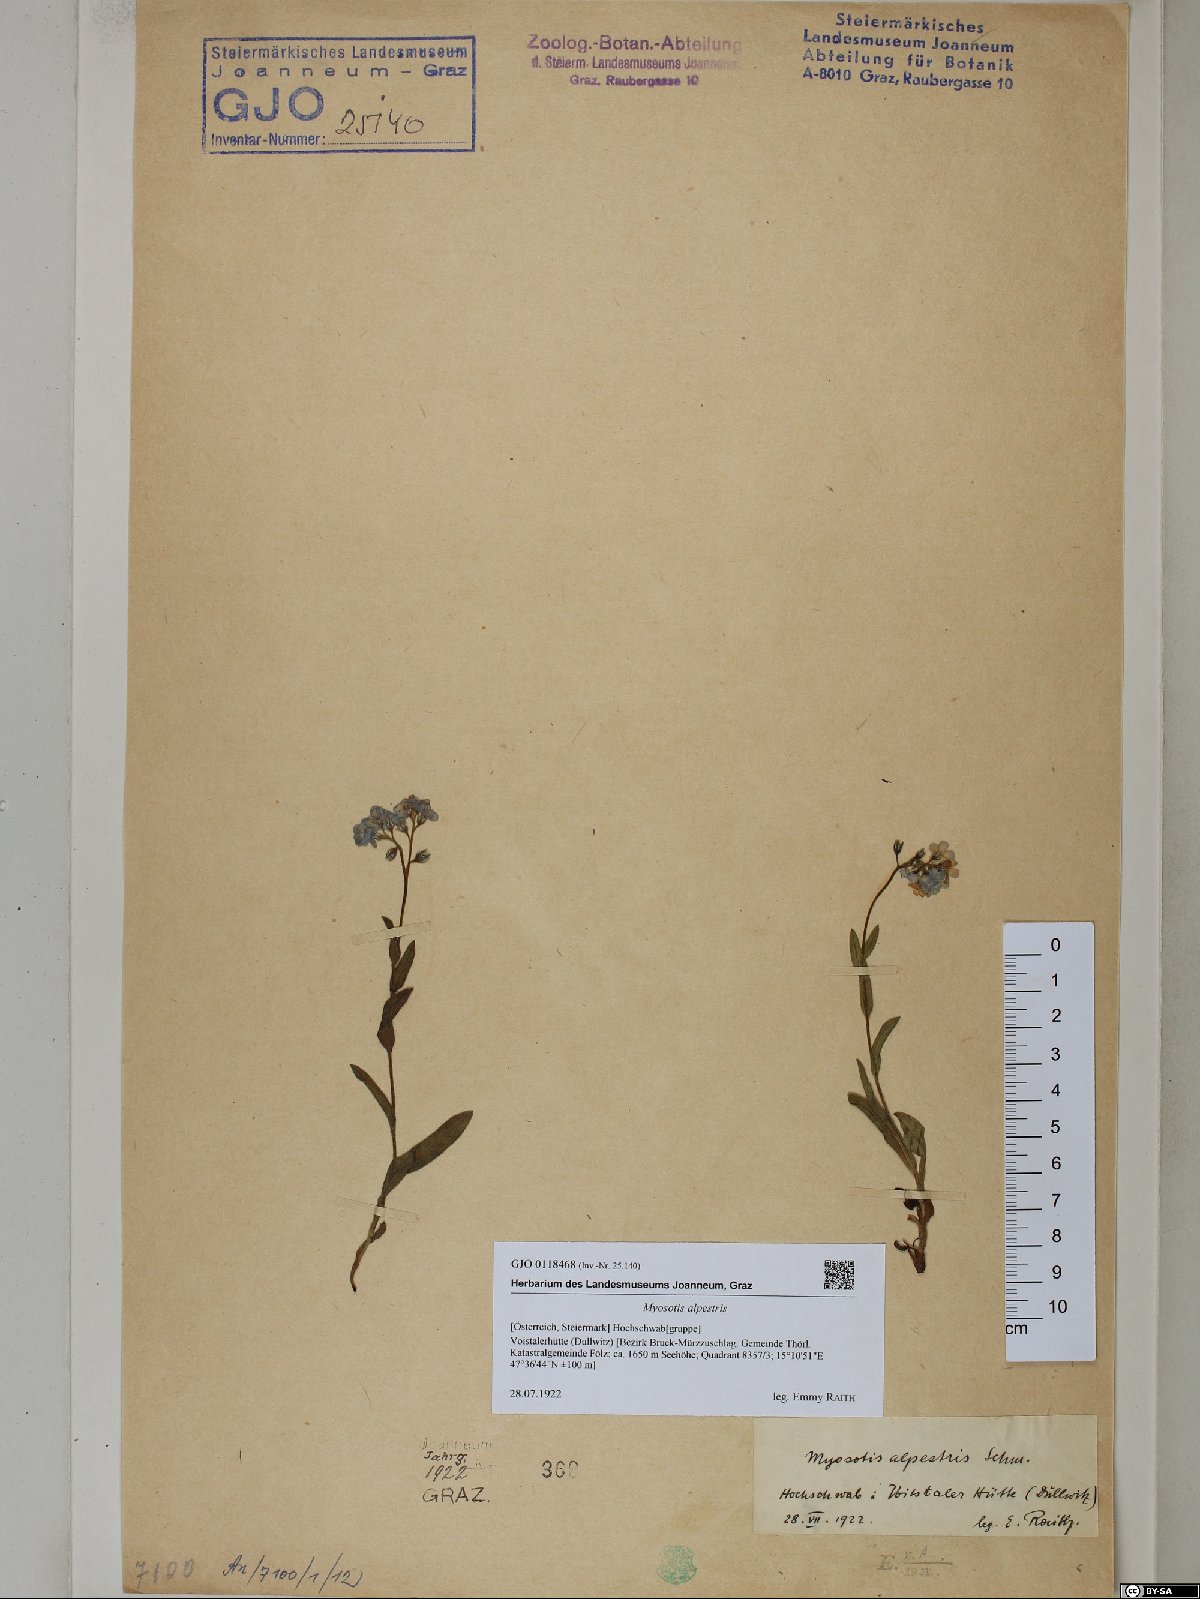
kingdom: Plantae
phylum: Tracheophyta
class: Magnoliopsida
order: Boraginales
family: Boraginaceae
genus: Myosotis
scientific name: Myosotis alpestris
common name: Alpine forget-me-not
